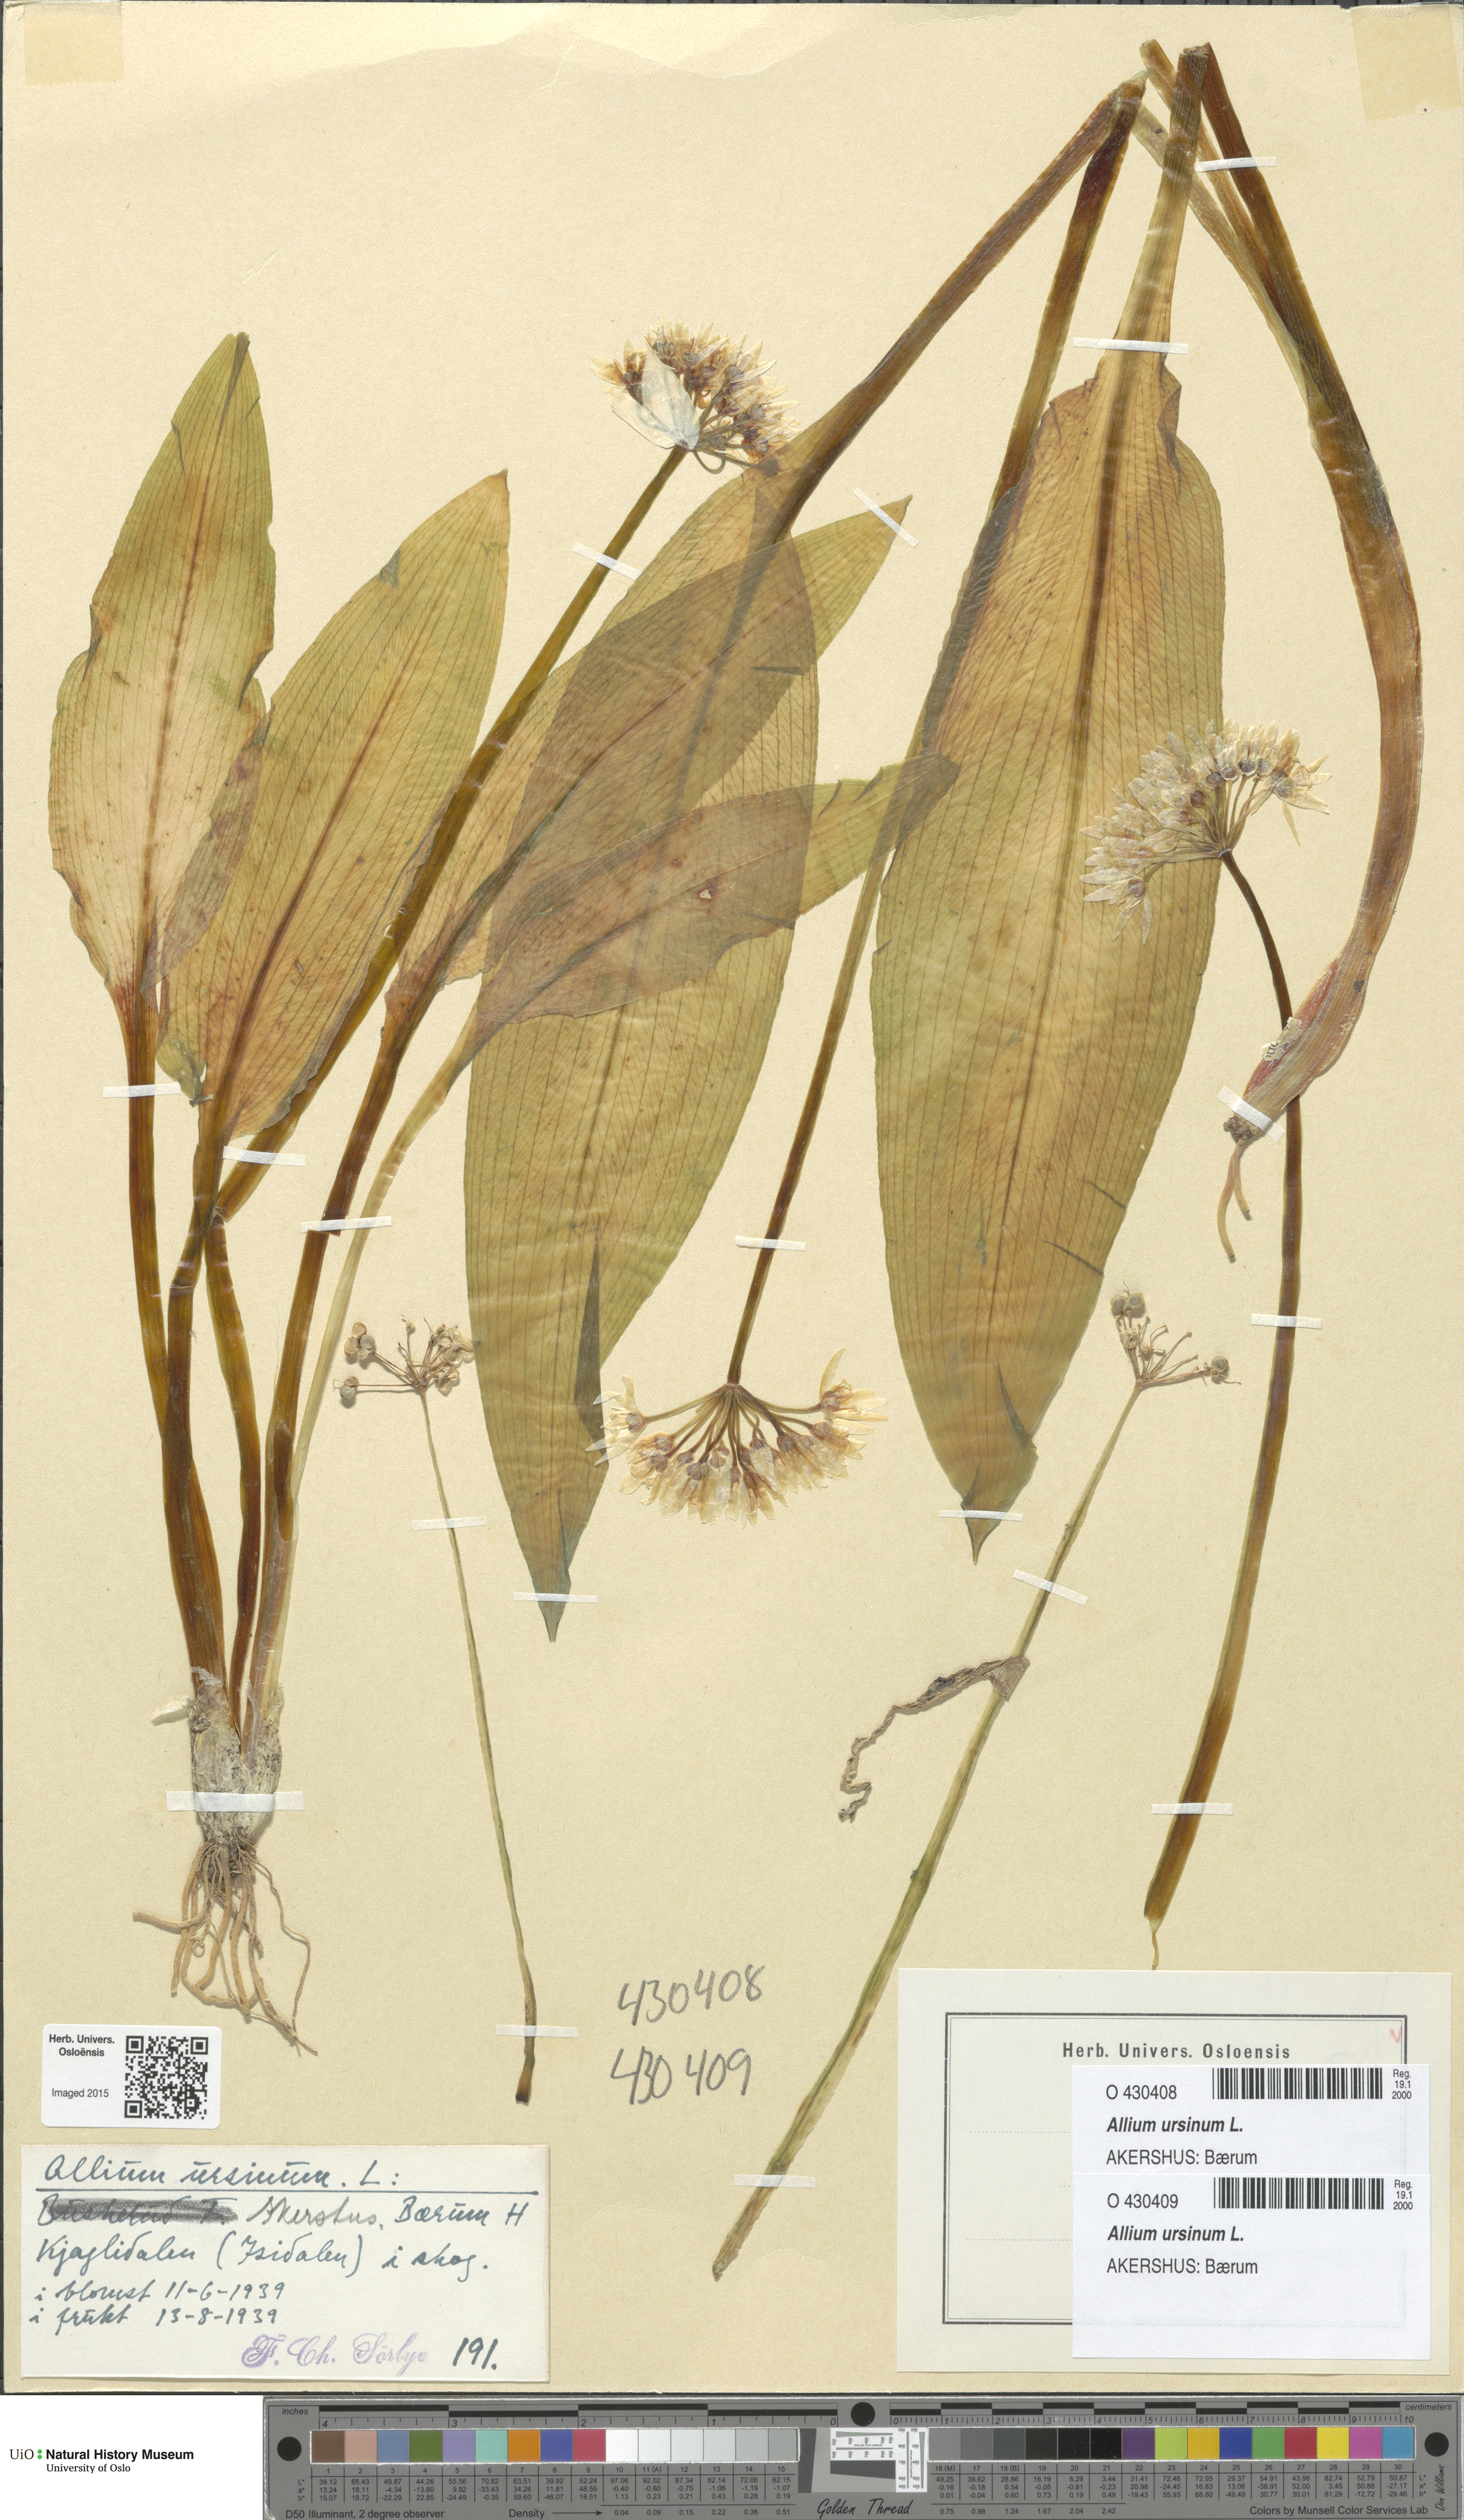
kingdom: Plantae
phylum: Tracheophyta
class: Liliopsida
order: Asparagales
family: Amaryllidaceae
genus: Allium
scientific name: Allium ursinum
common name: Ramsons
